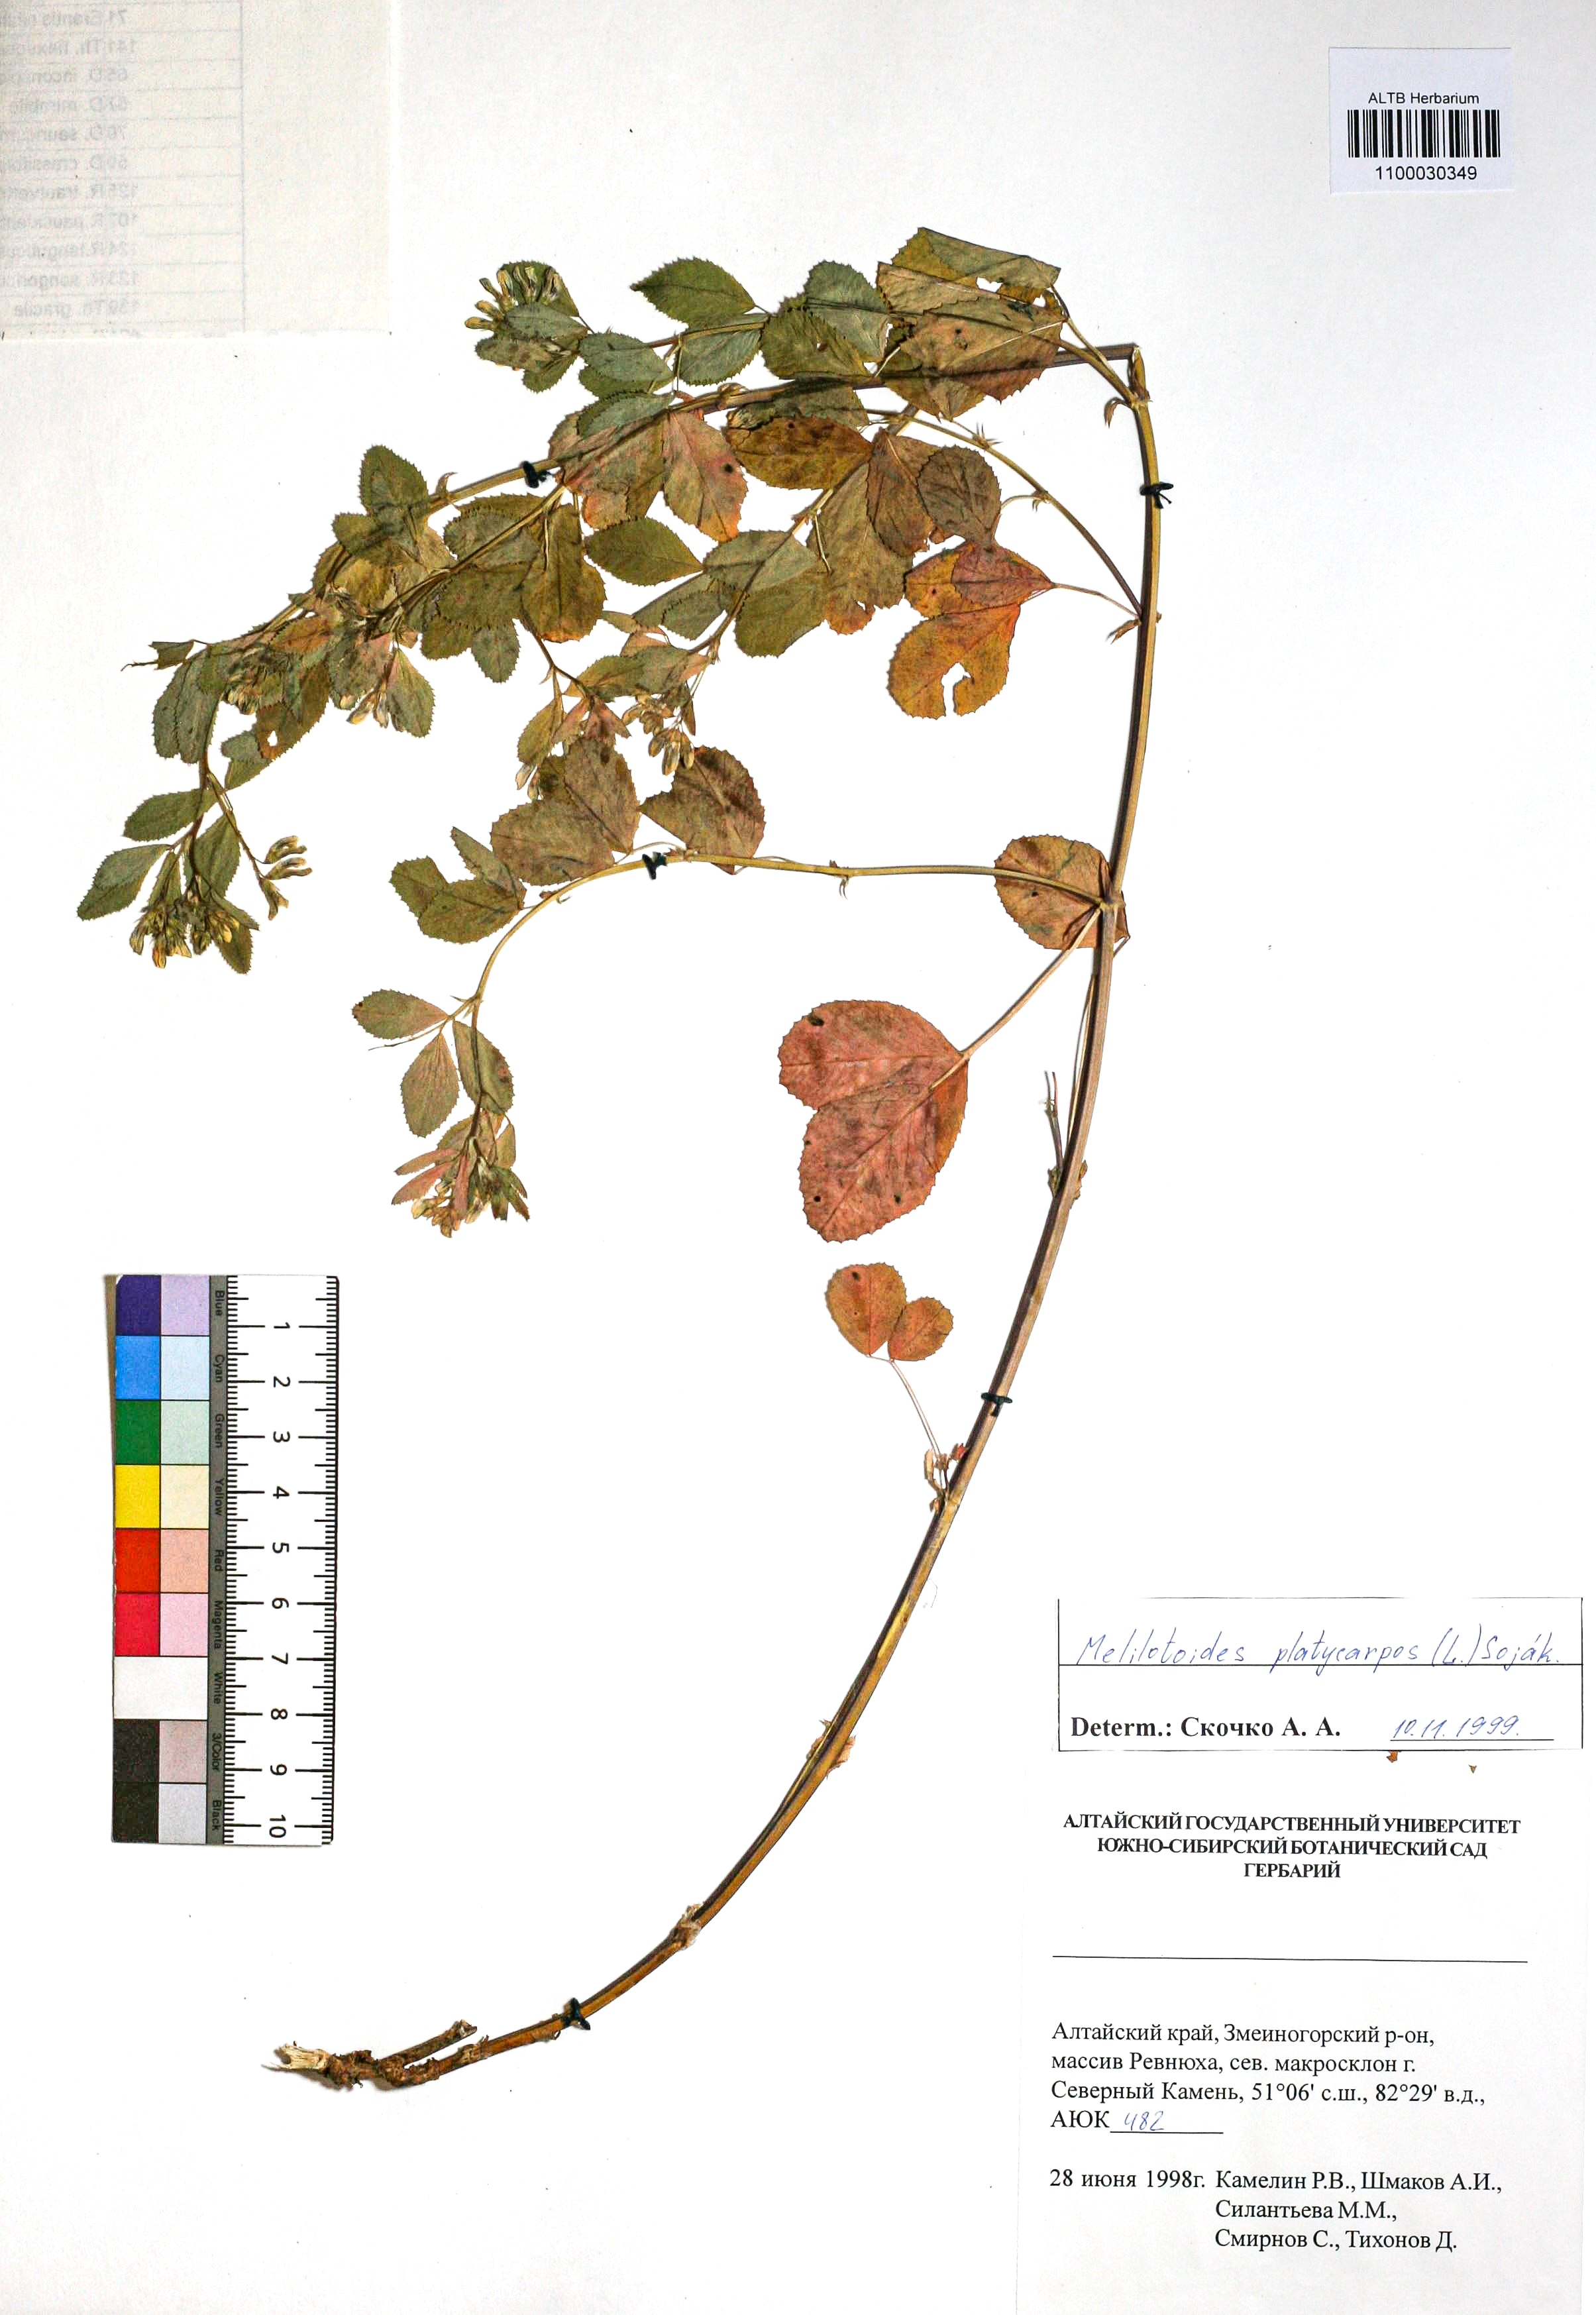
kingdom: Plantae
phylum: Tracheophyta
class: Magnoliopsida
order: Fabales
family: Fabaceae
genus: Medicago
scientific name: Medicago platycarpos
